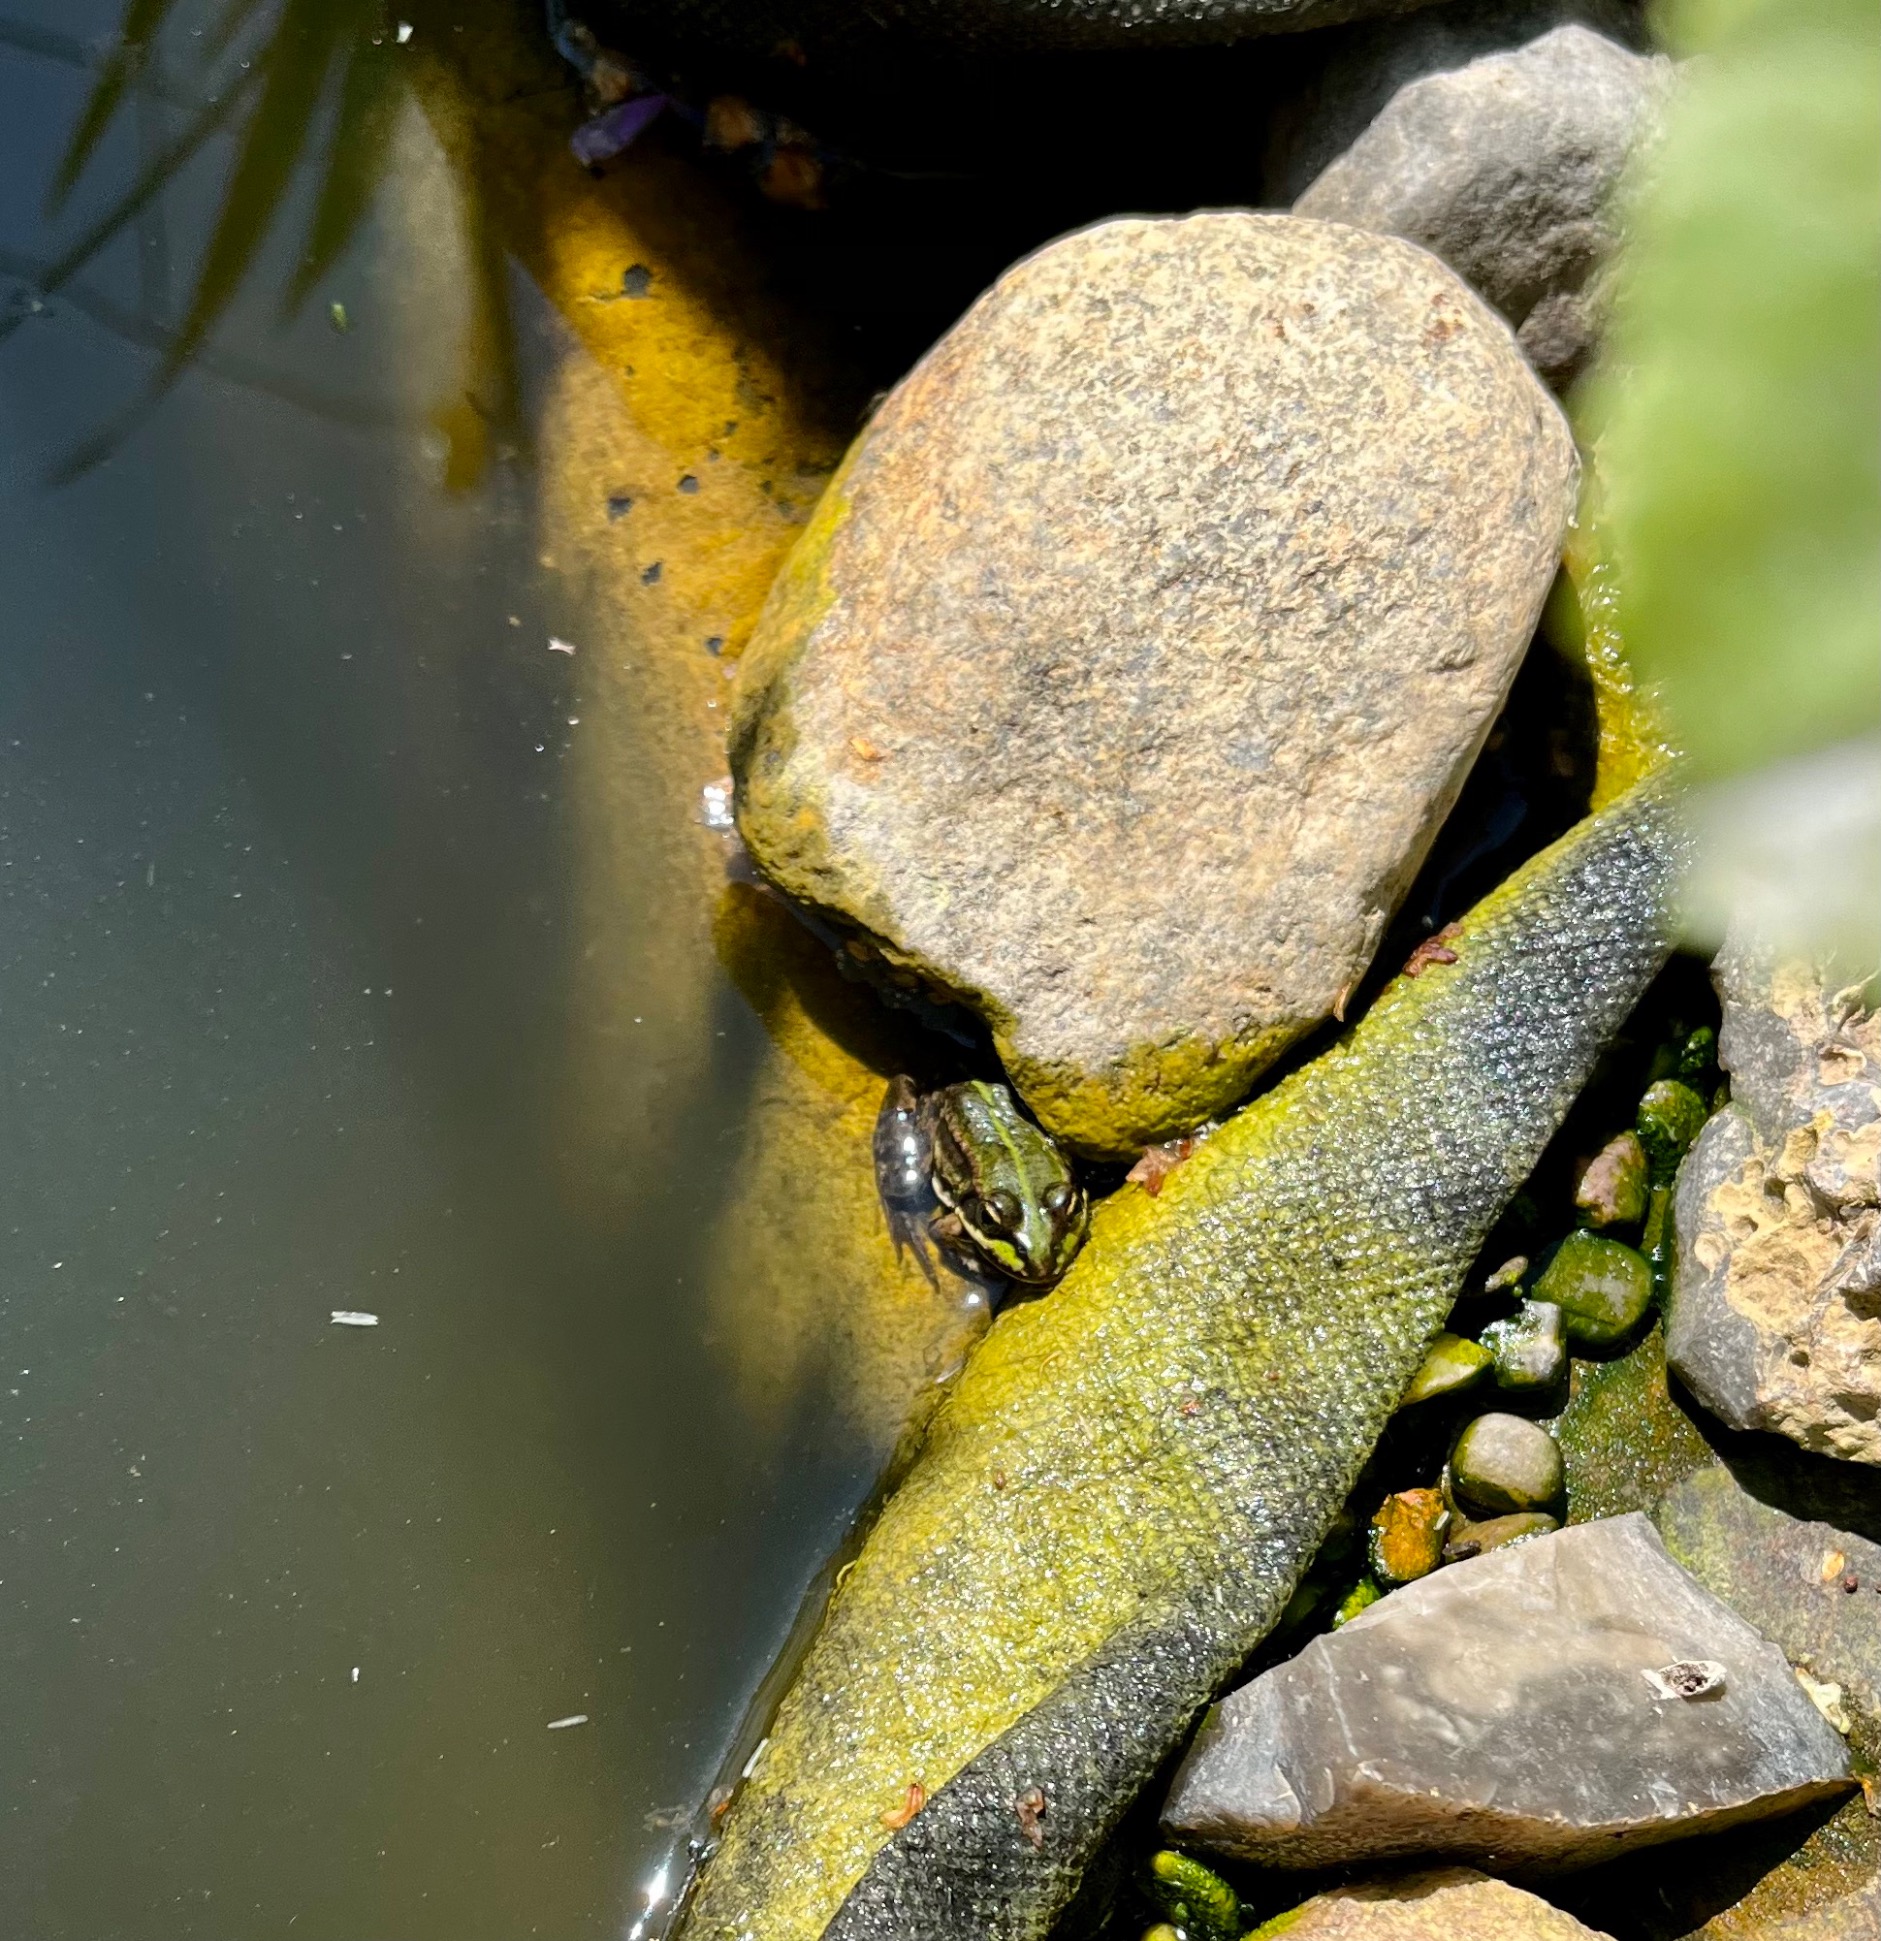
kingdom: Animalia
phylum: Chordata
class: Amphibia
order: Anura
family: Ranidae
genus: Pelophylax
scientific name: Pelophylax lessonae
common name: Grøn frø
